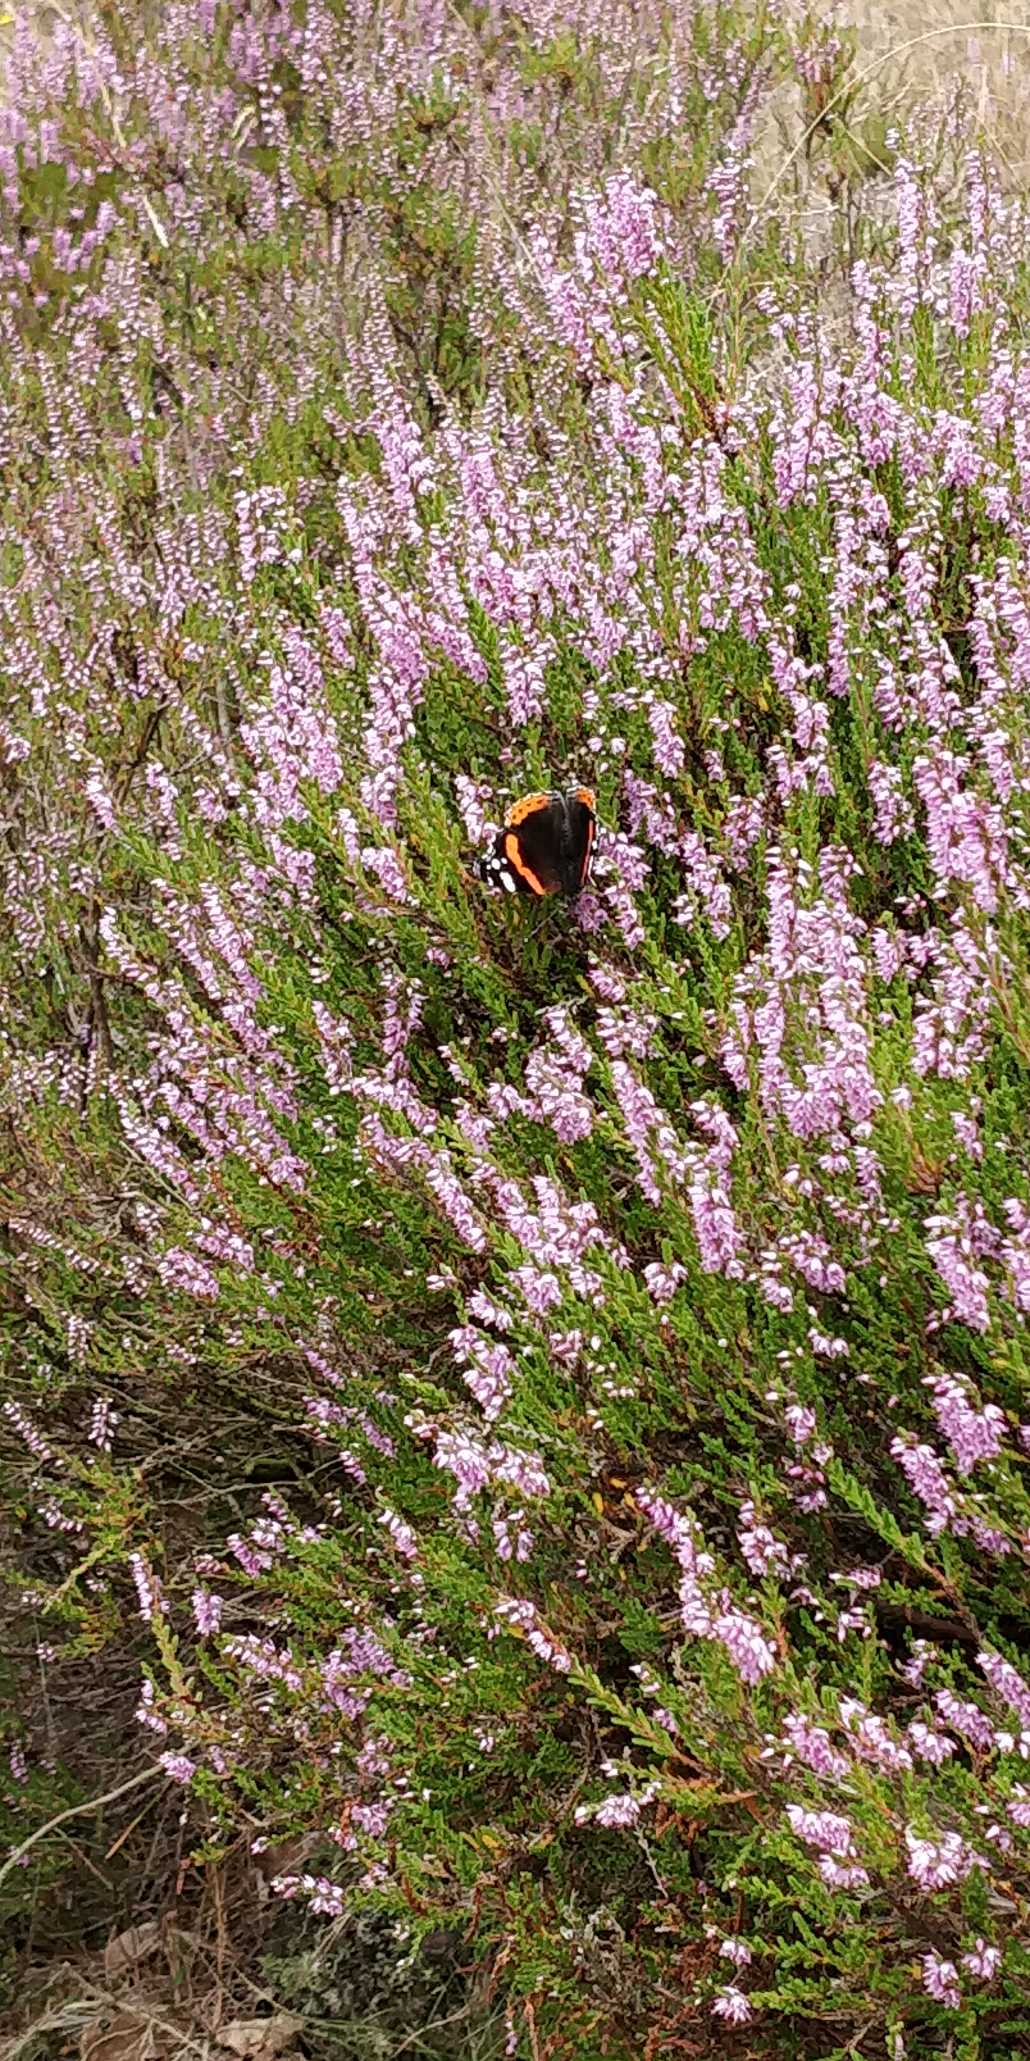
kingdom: Animalia
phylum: Arthropoda
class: Insecta
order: Lepidoptera
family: Nymphalidae
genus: Vanessa
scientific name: Vanessa atalanta
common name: Admiral
